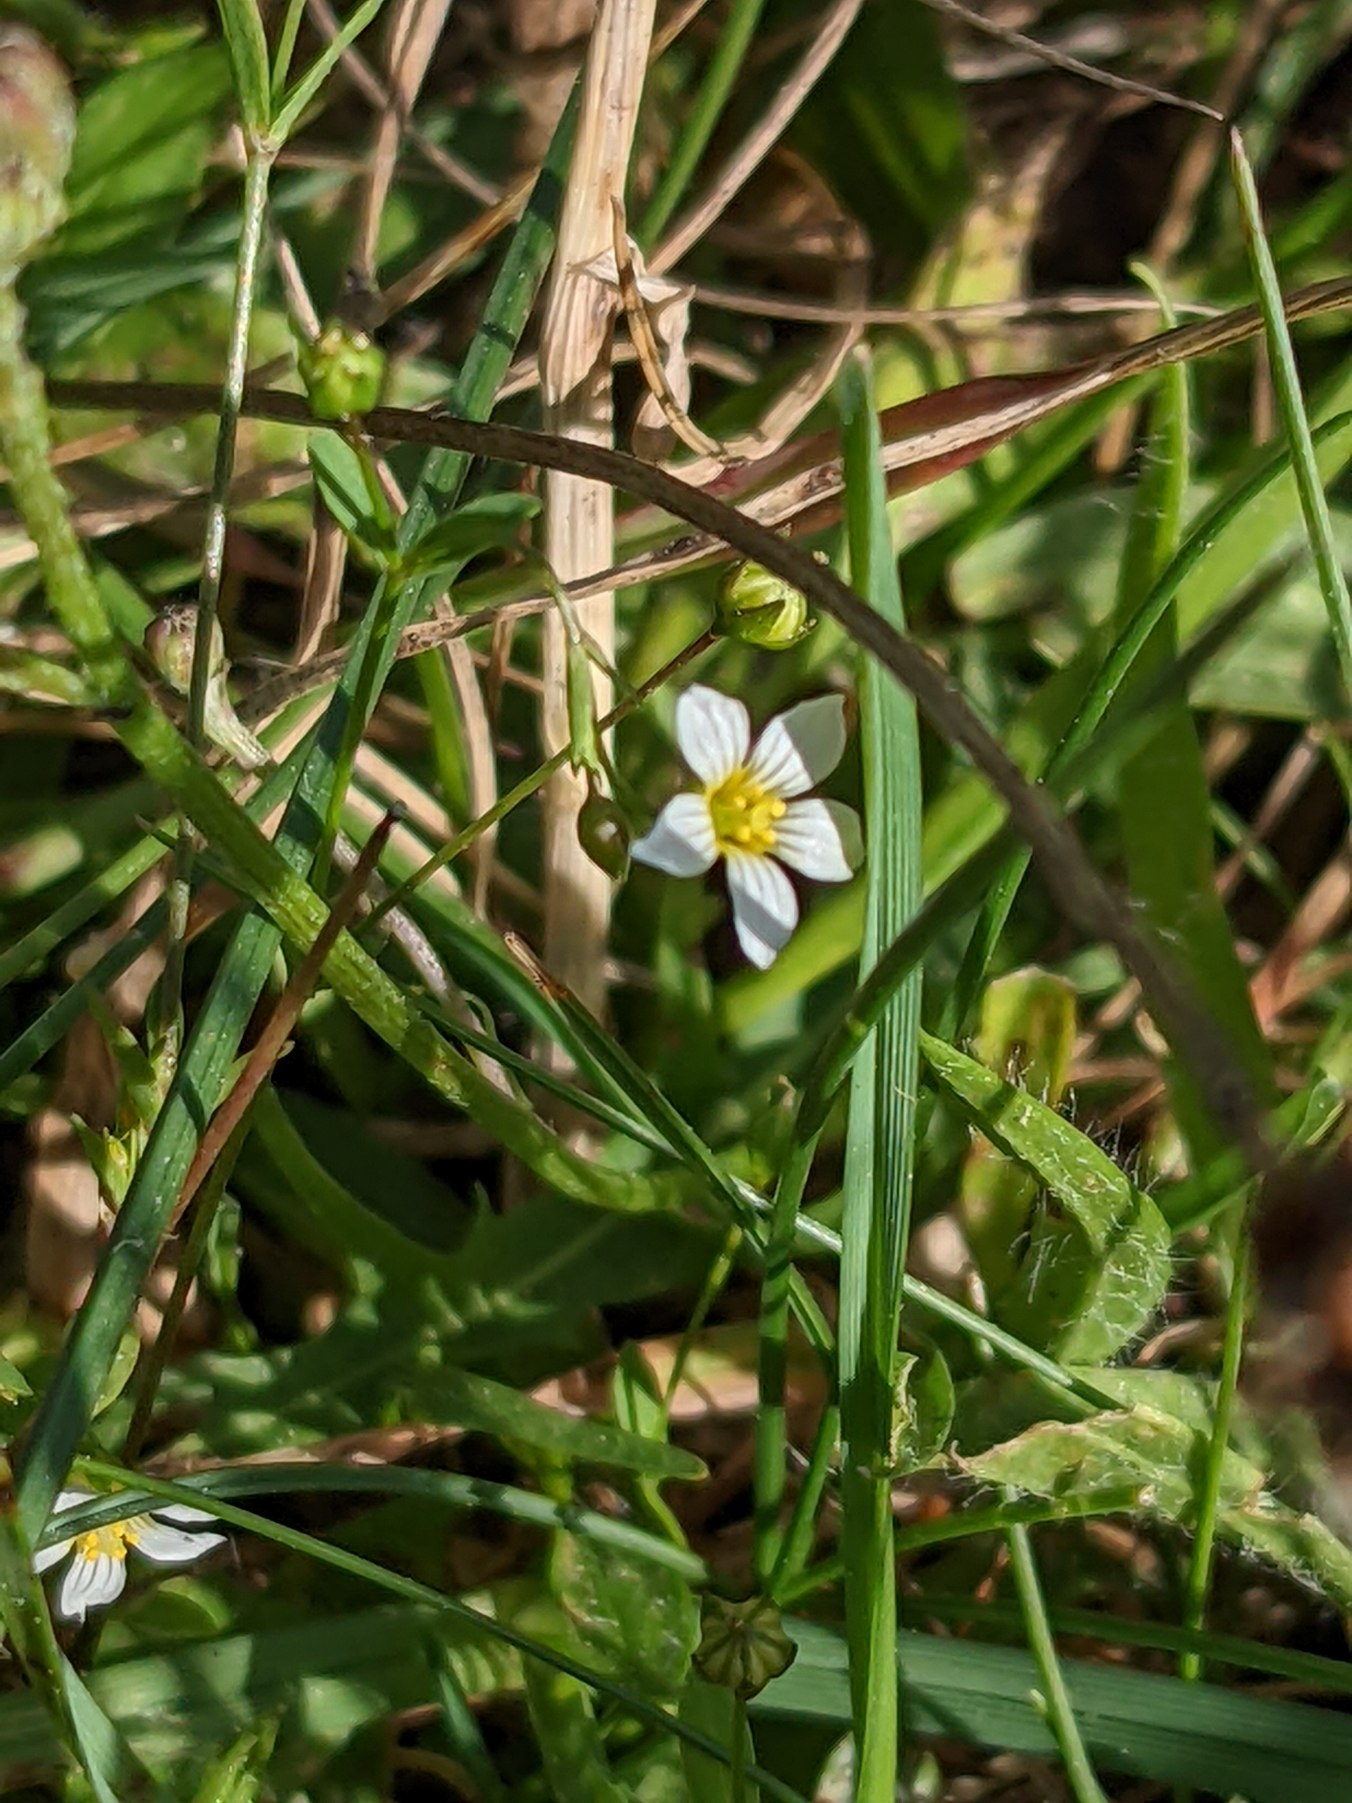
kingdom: Plantae
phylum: Tracheophyta
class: Magnoliopsida
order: Malpighiales
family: Linaceae
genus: Linum
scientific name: Linum catharticum
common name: Vild hør
